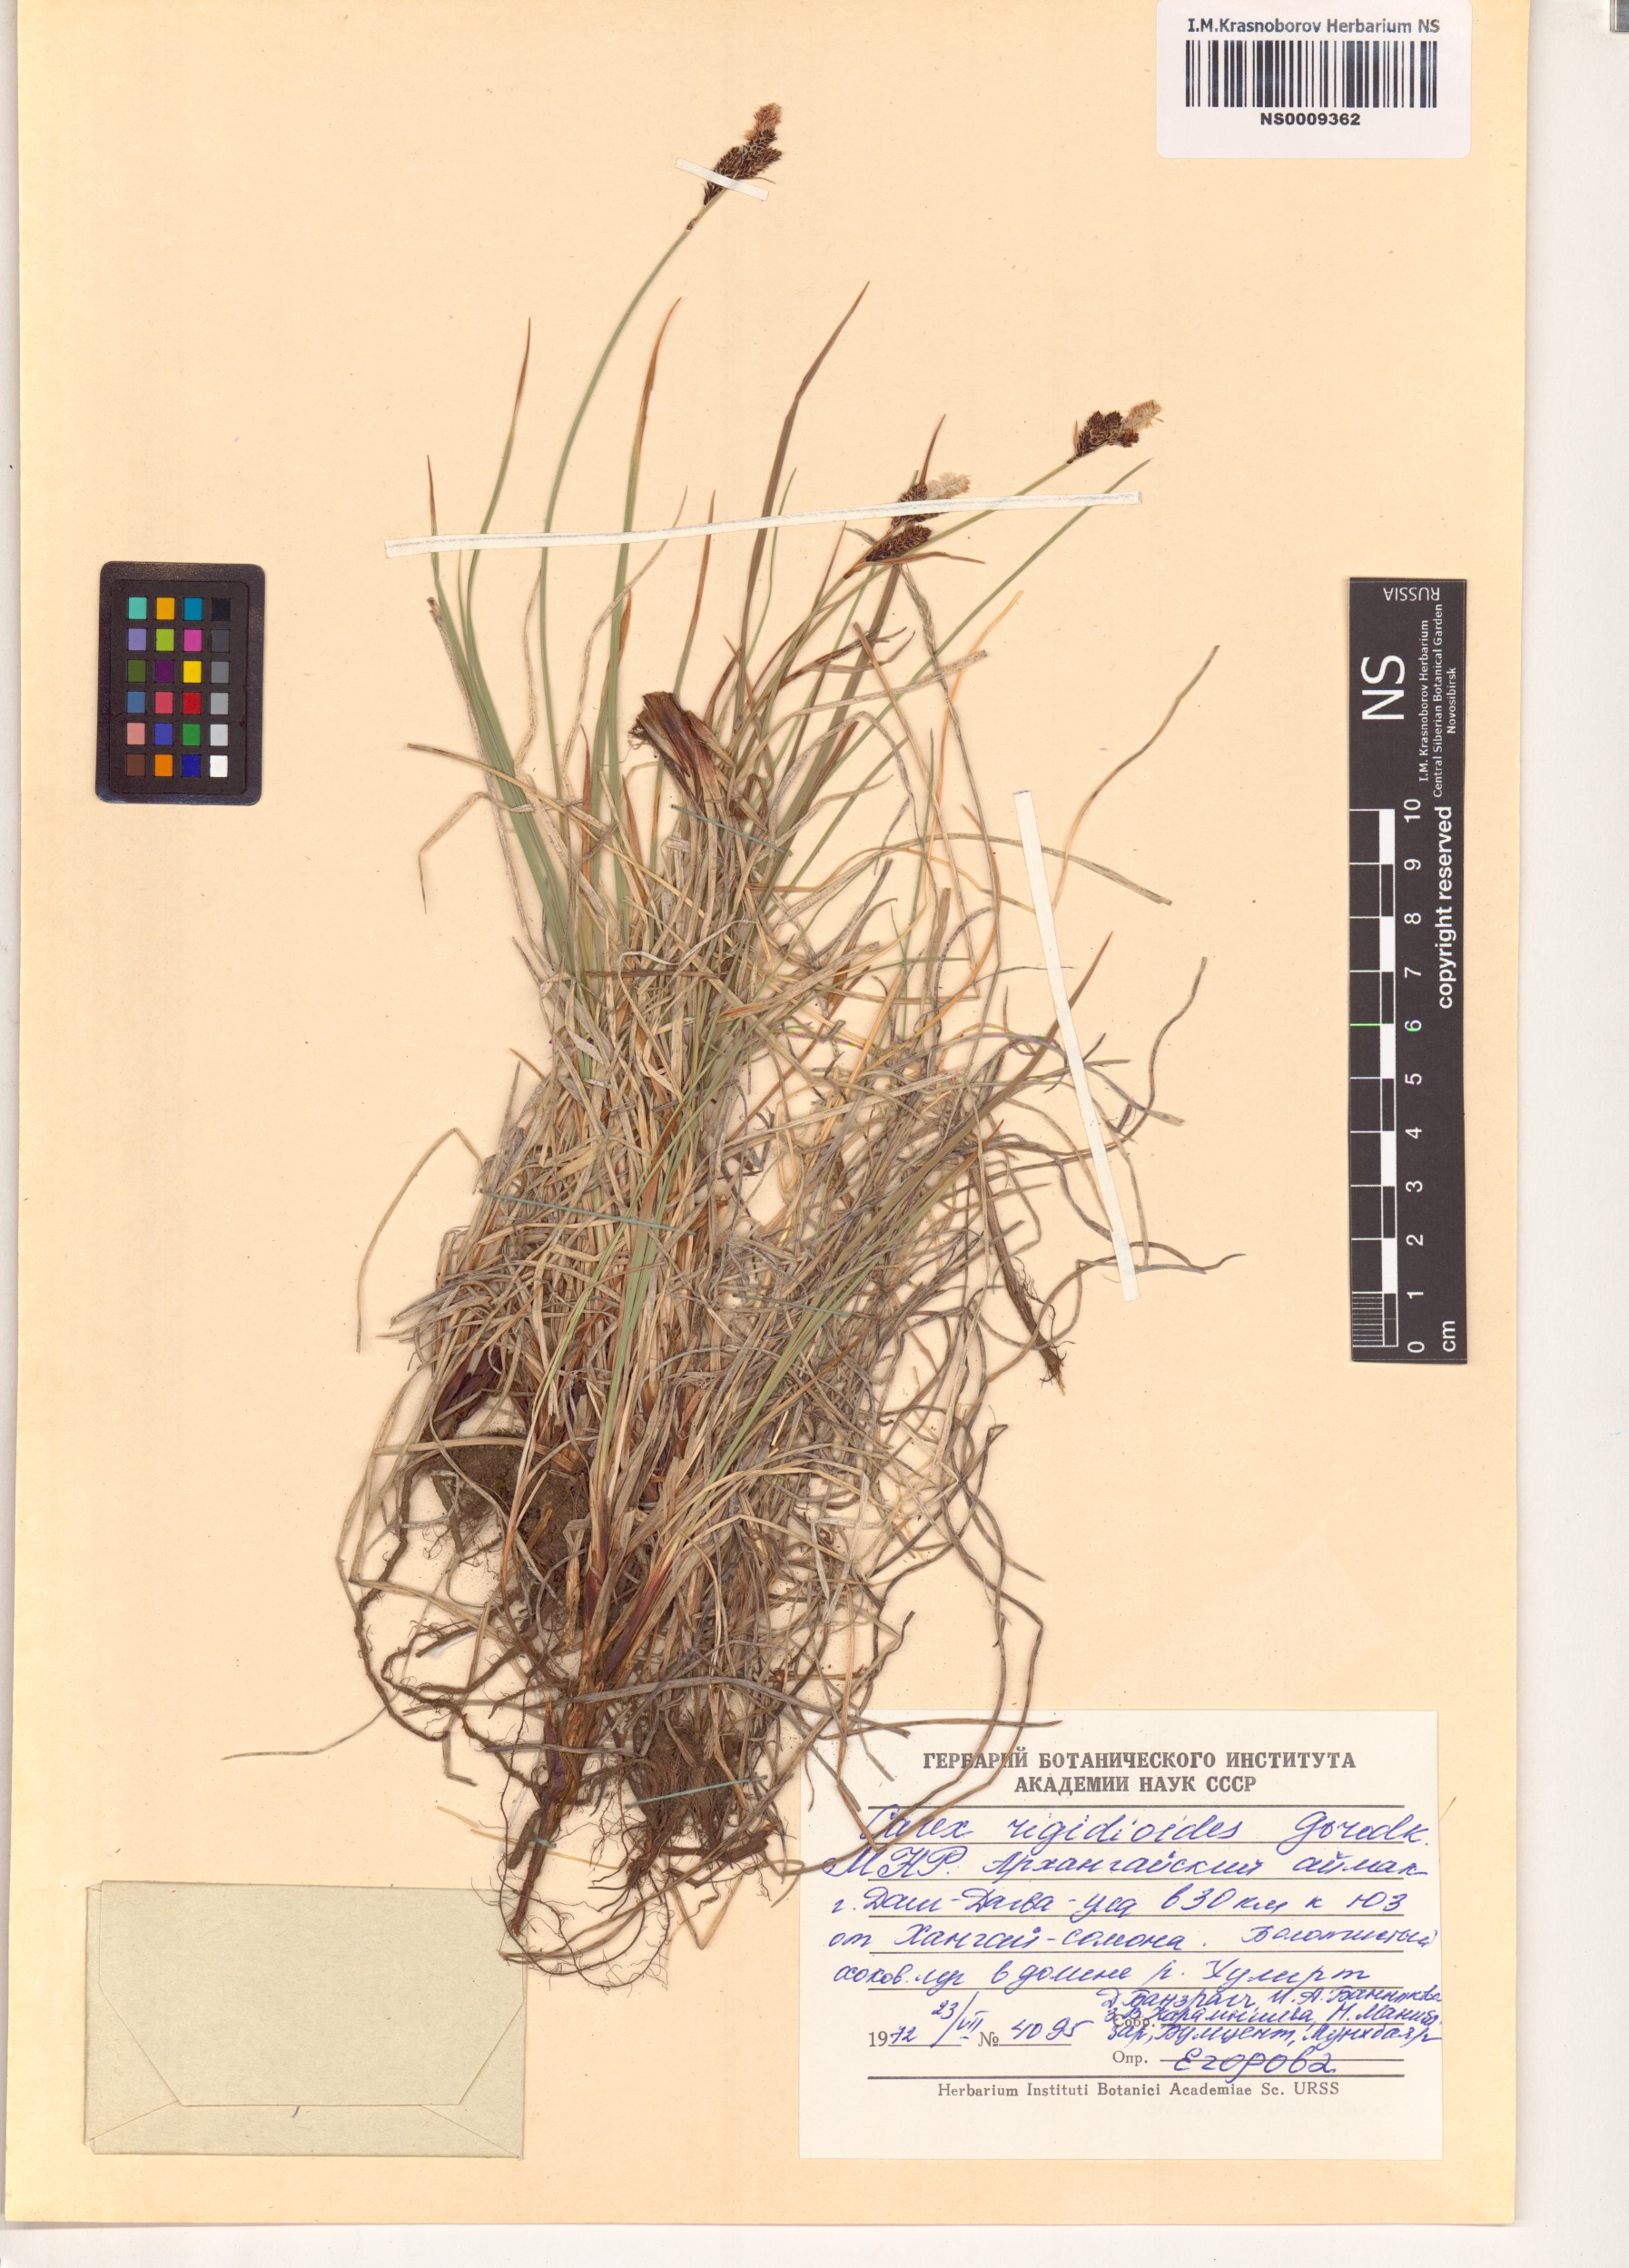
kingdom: Plantae
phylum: Tracheophyta
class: Liliopsida
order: Poales
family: Cyperaceae
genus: Carex
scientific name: Carex rigidioides
